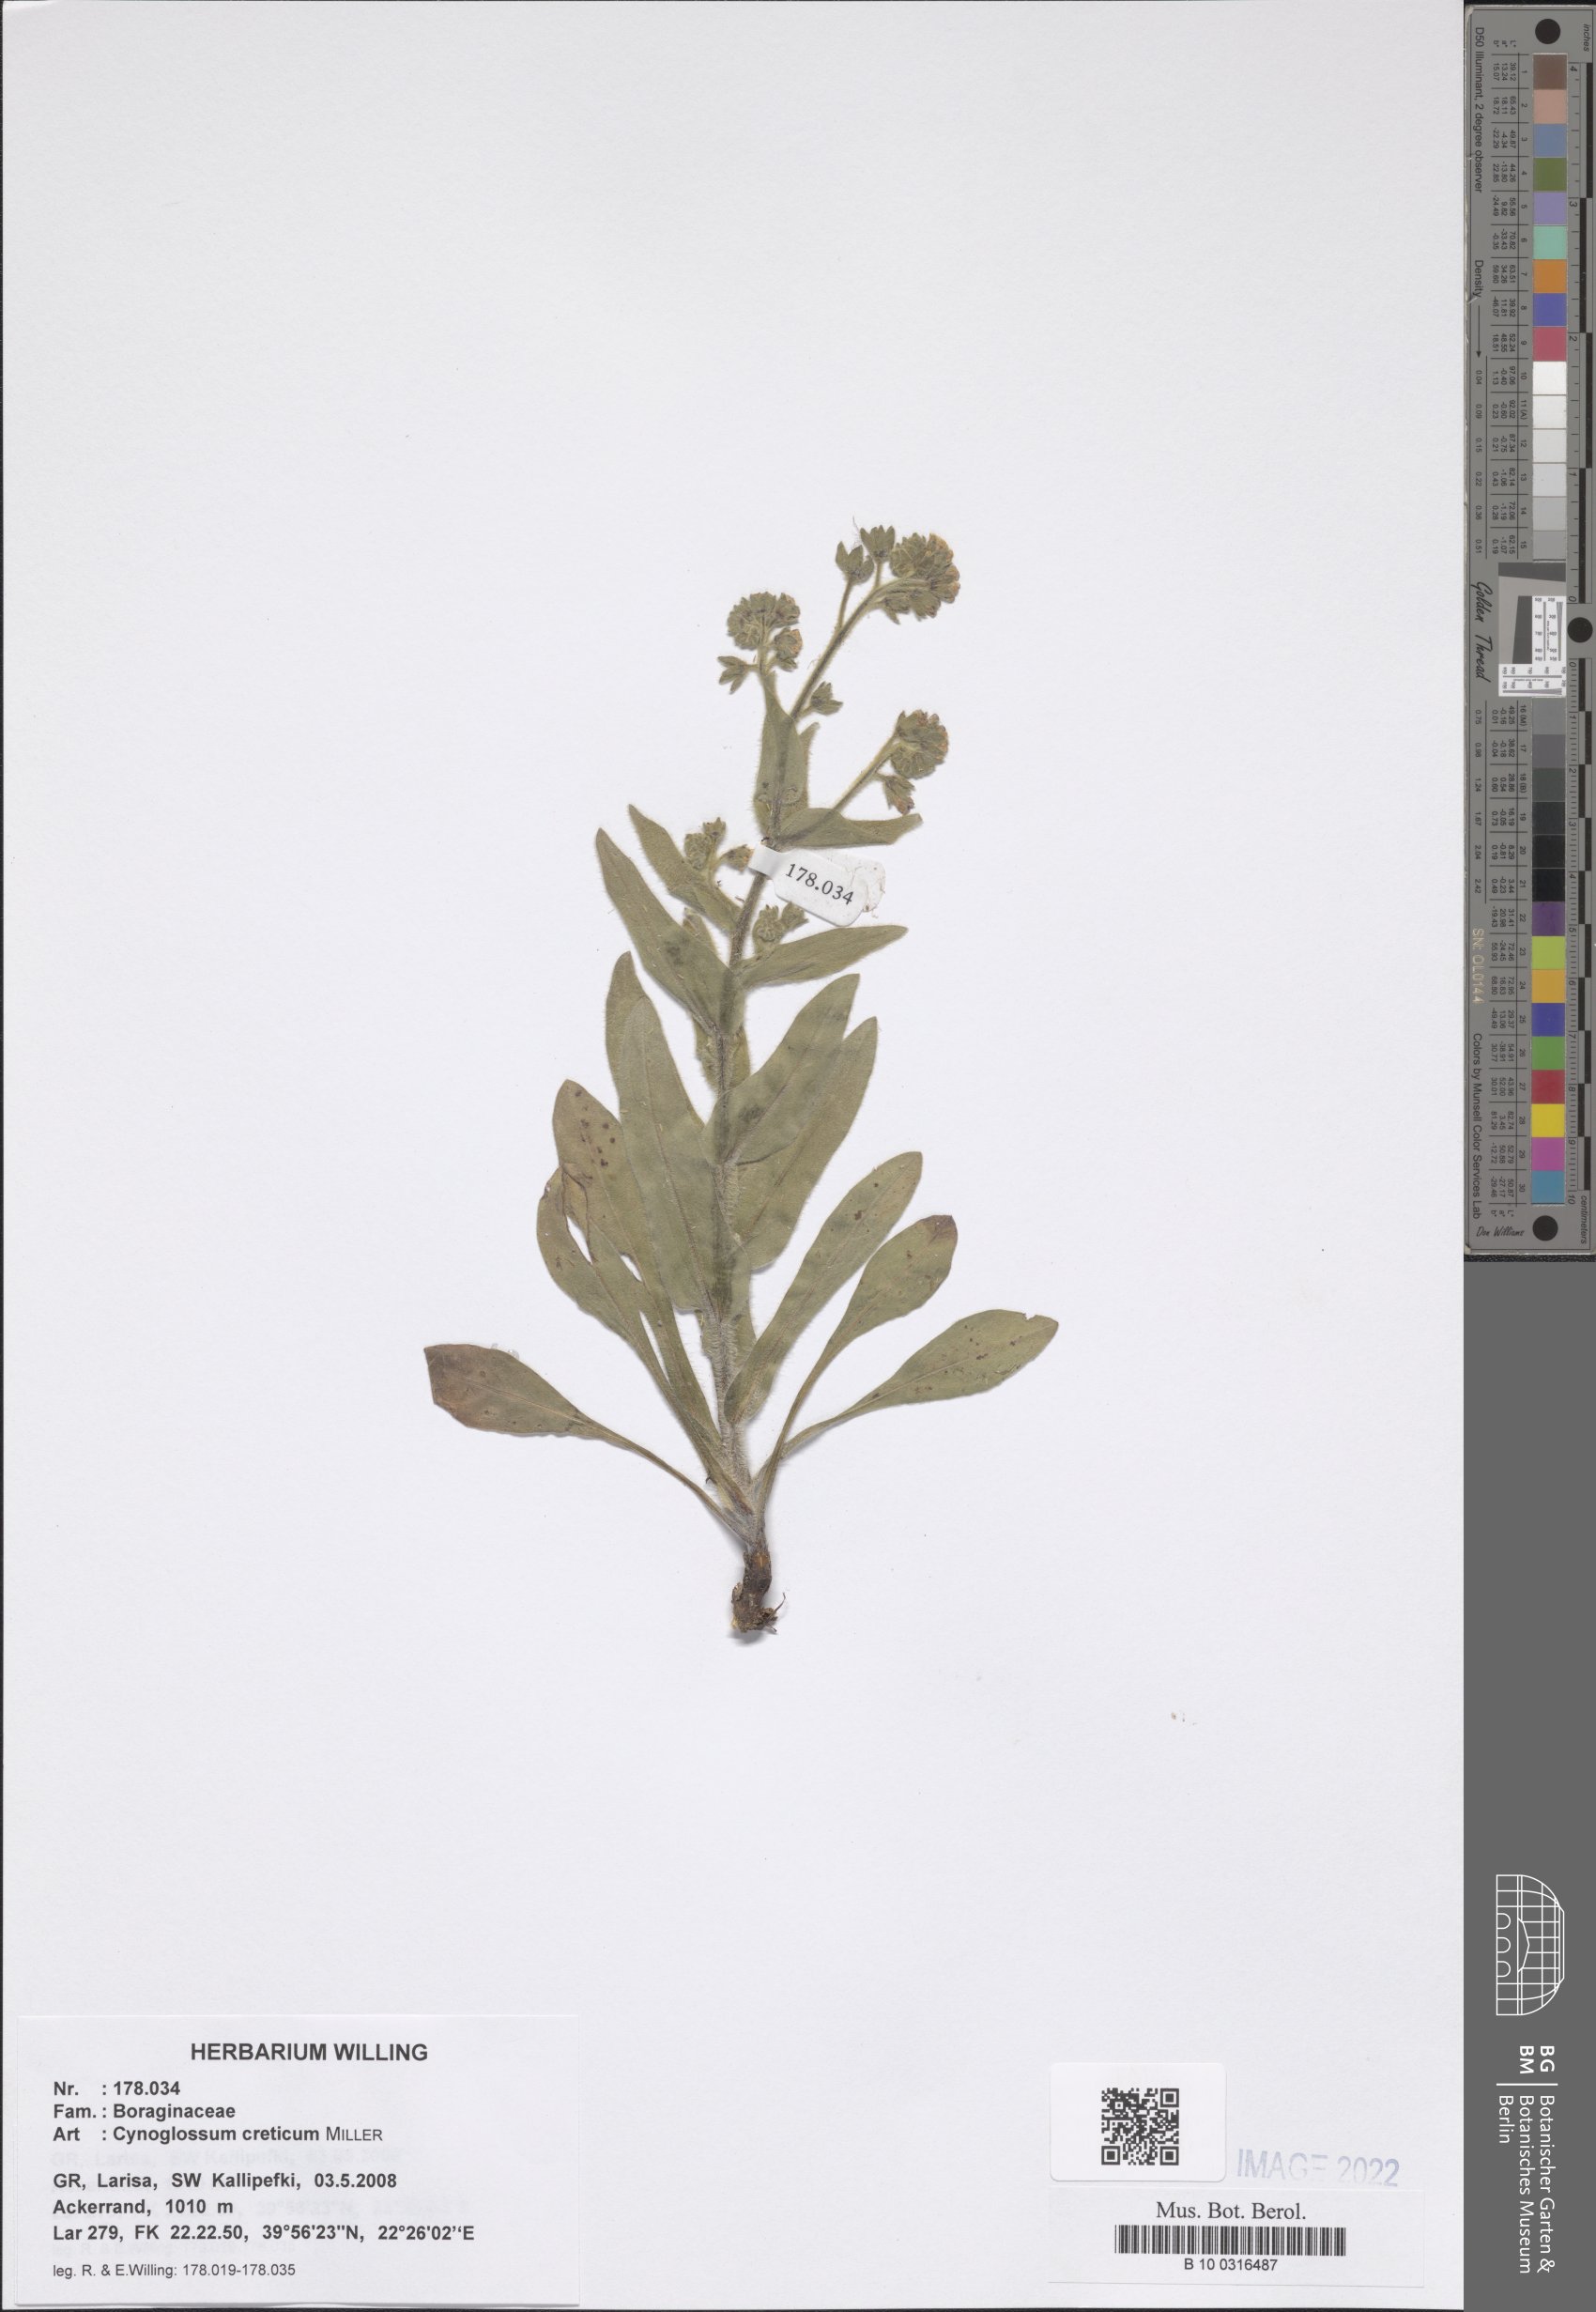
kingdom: Plantae
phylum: Tracheophyta
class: Magnoliopsida
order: Boraginales
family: Boraginaceae
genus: Cynoglossum
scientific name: Cynoglossum creticum
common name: Blue hound's tongue
